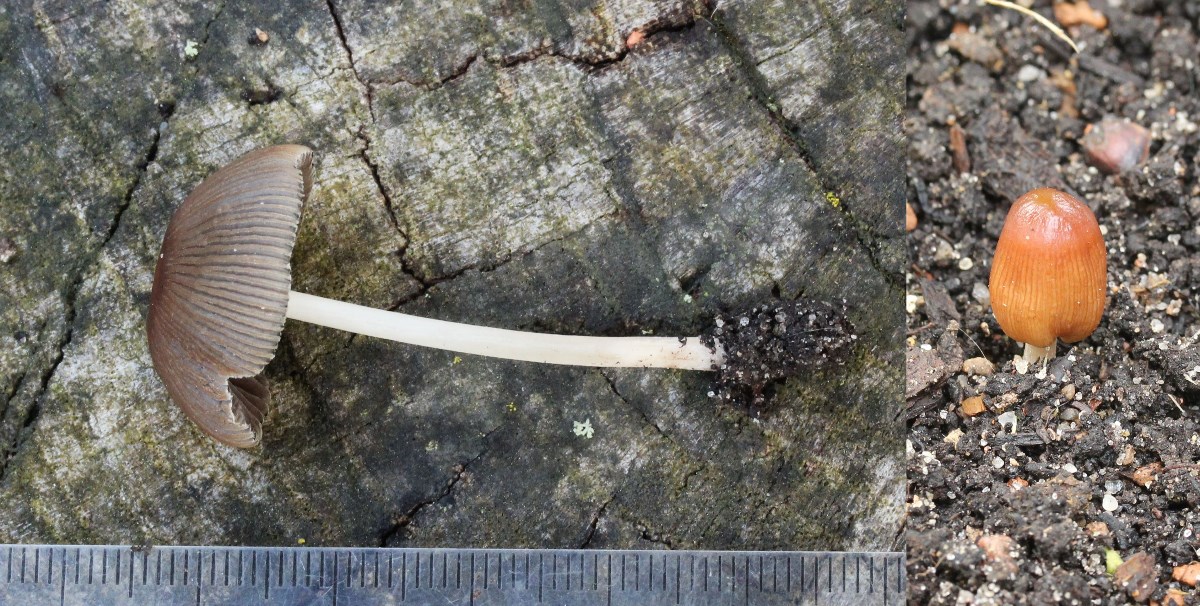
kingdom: Fungi
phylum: Basidiomycota
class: Agaricomycetes
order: Agaricales
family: Psathyrellaceae
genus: Parasola
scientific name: Parasola auricoma
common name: hansens hjulhat
